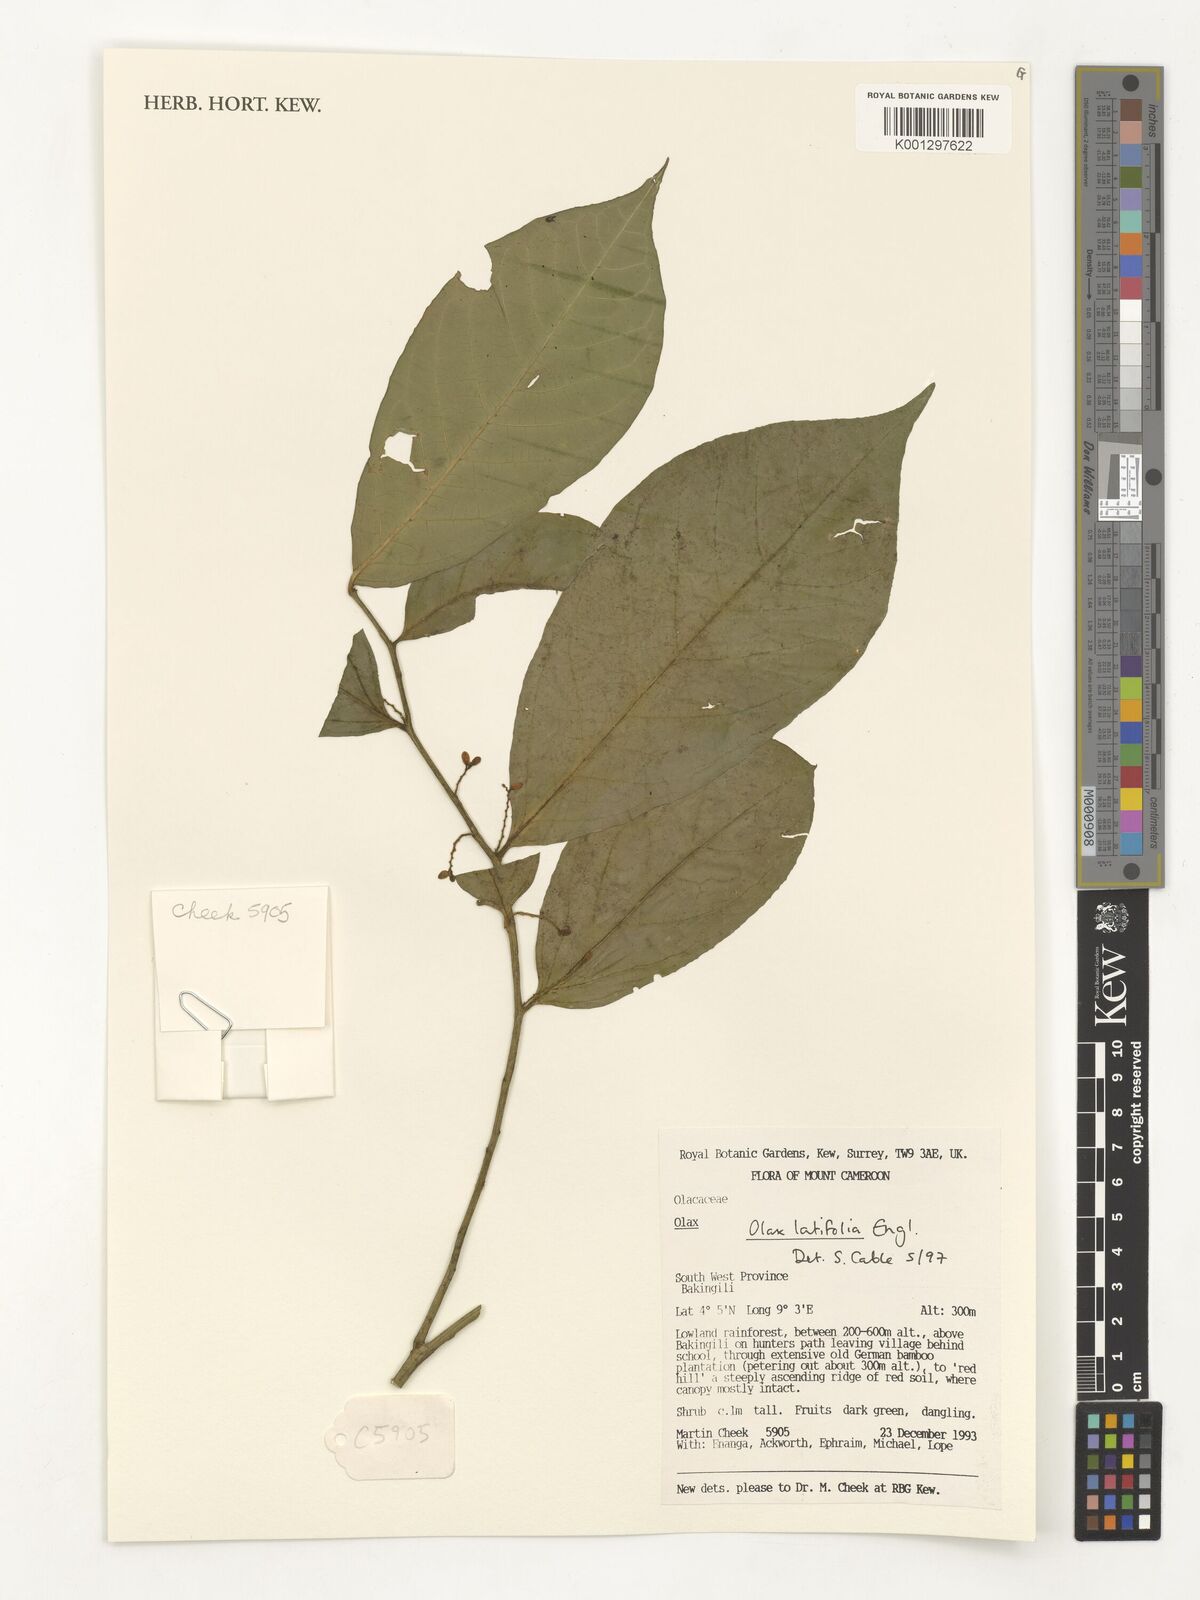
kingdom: Plantae
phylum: Tracheophyta
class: Magnoliopsida
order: Santalales
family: Olacaceae
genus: Olax
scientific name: Olax latifolia
